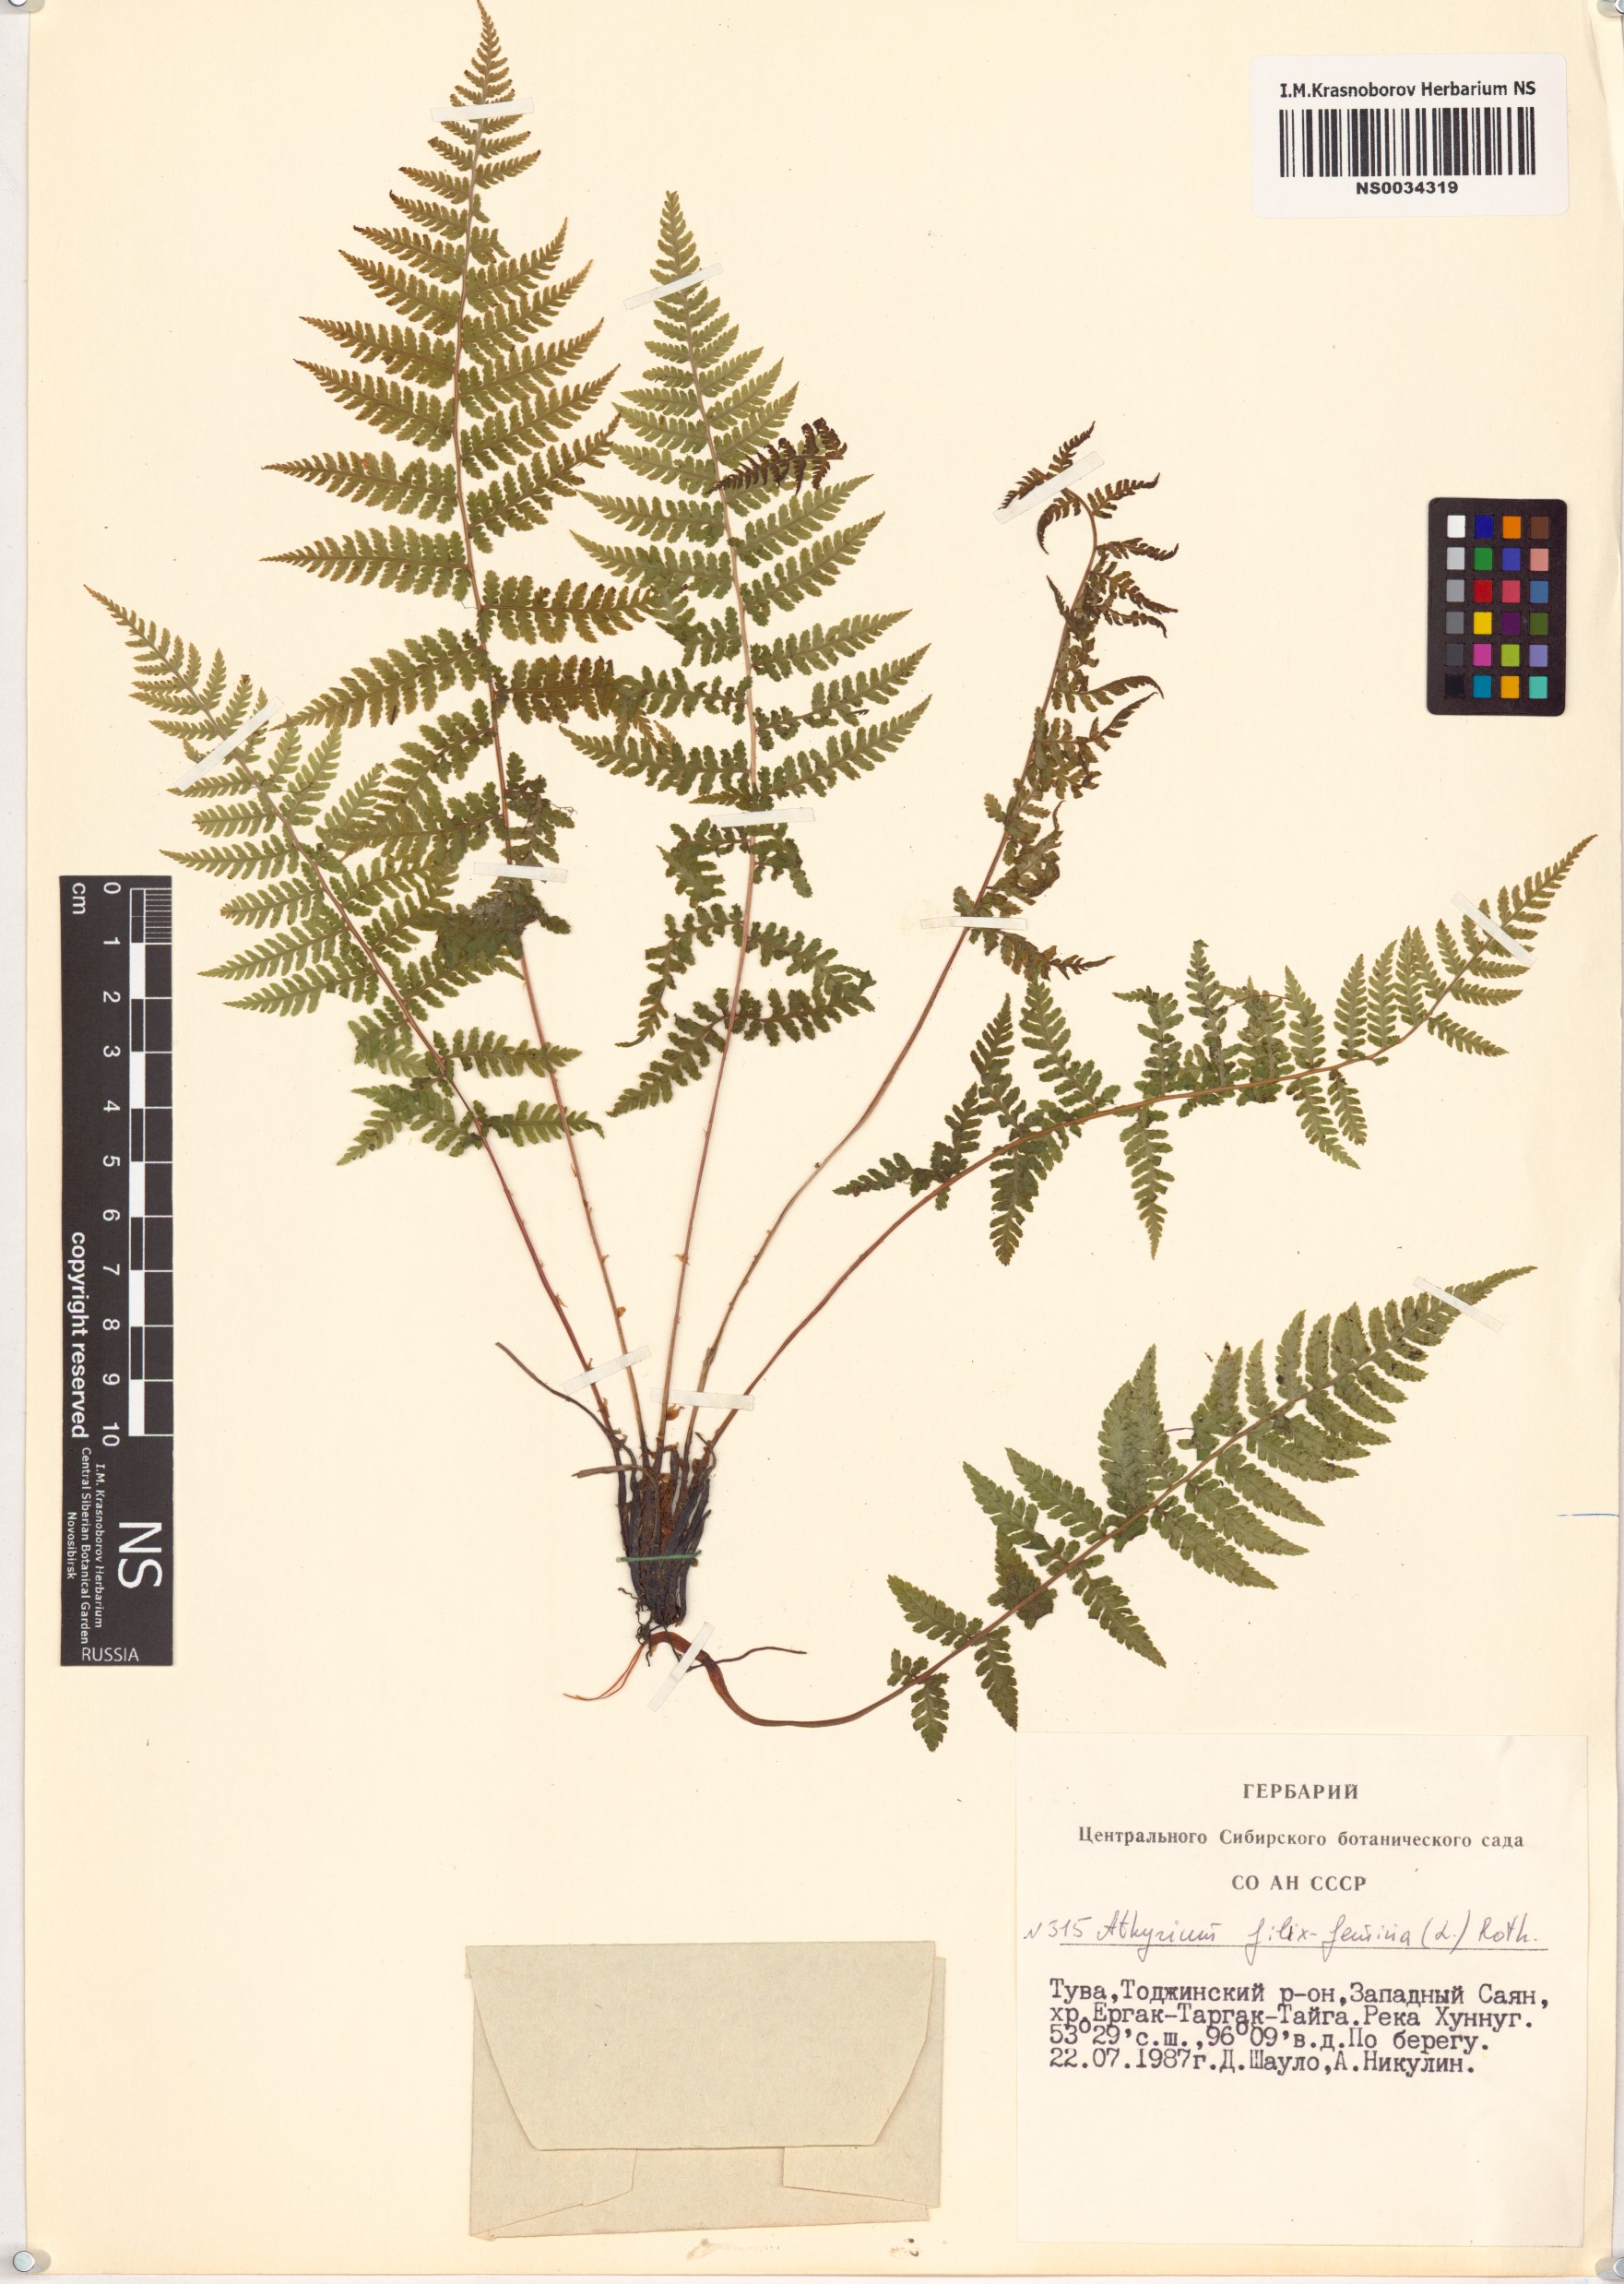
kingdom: Plantae
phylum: Tracheophyta
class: Polypodiopsida
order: Polypodiales
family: Athyriaceae
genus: Athyrium
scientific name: Athyrium filix-femina
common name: Lady fern
